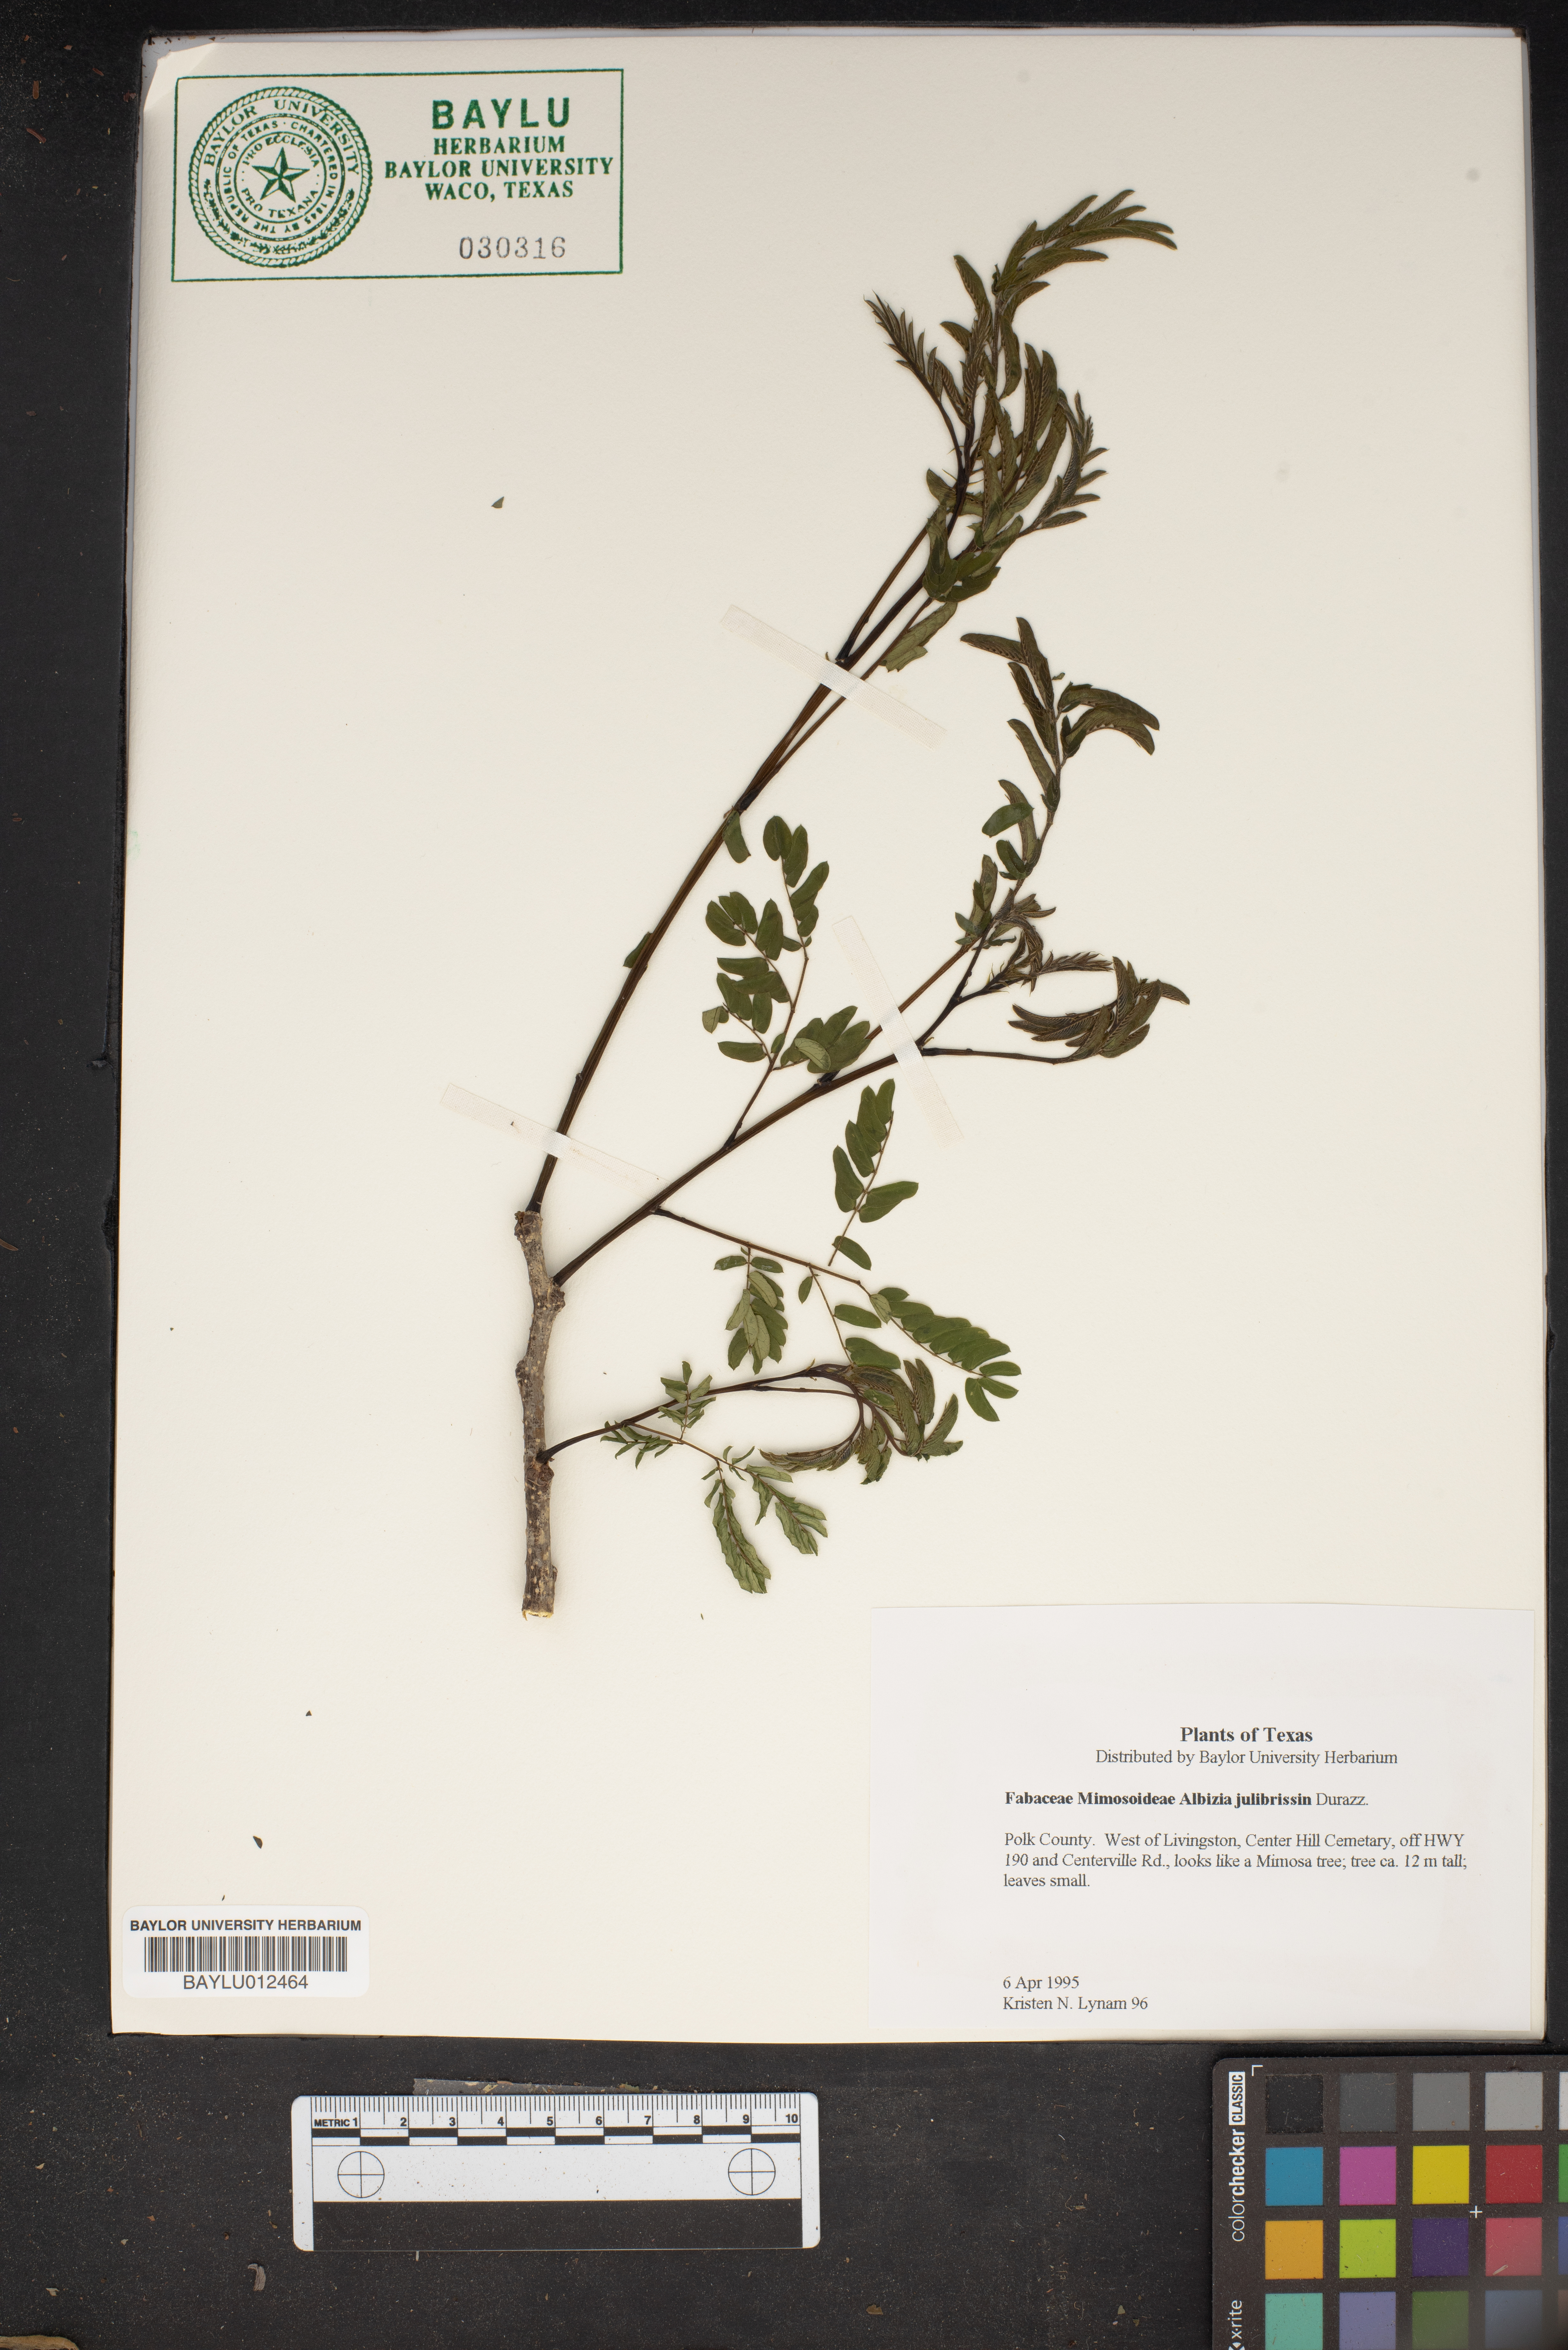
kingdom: Plantae
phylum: Tracheophyta
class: Magnoliopsida
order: Fabales
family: Fabaceae
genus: Albizia
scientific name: Albizia julibrissin
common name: Silktree
